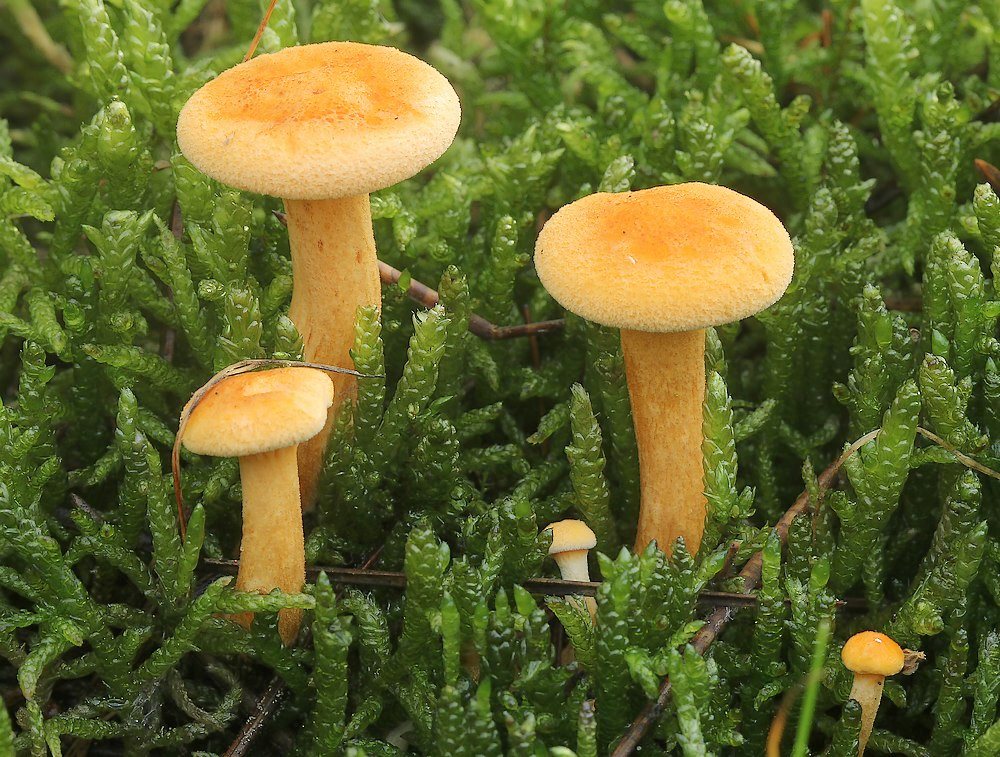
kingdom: Fungi
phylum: Basidiomycota
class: Agaricomycetes
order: Boletales
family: Hygrophoropsidaceae
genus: Hygrophoropsis
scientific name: Hygrophoropsis aurantiaca
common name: almindelig orangekantarel
